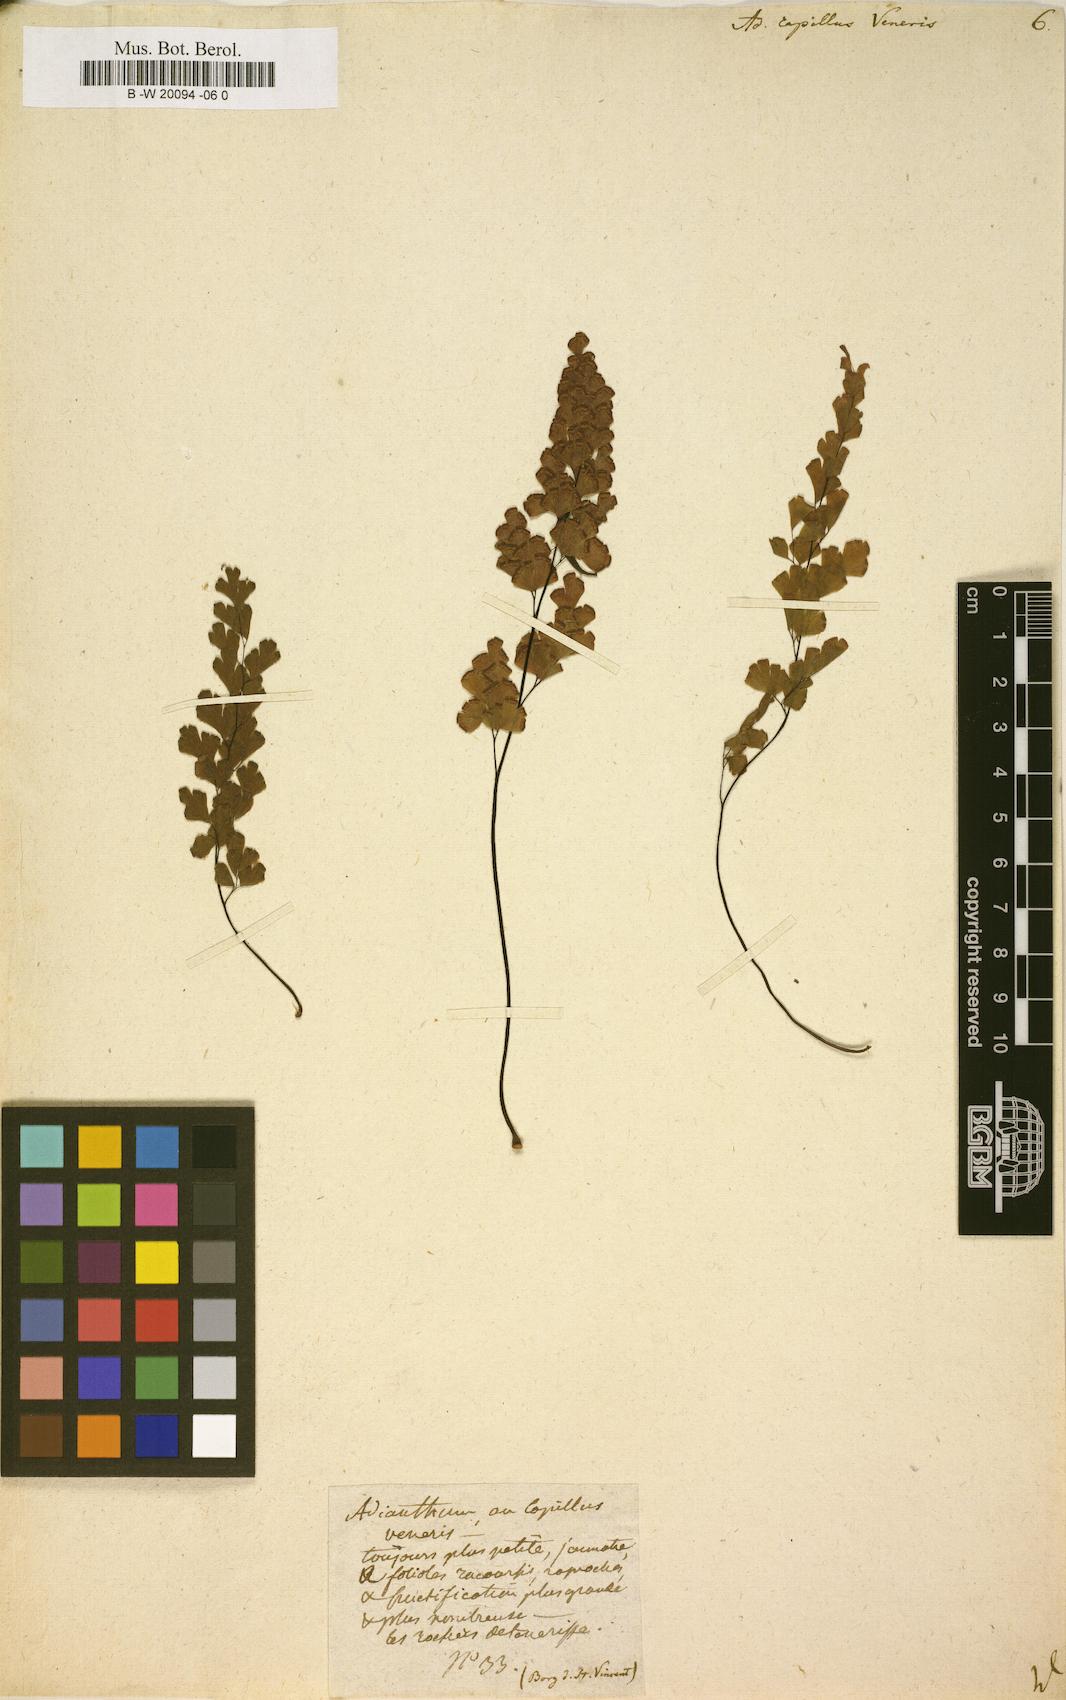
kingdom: Plantae
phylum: Tracheophyta
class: Polypodiopsida
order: Polypodiales
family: Pteridaceae
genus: Adiantum
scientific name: Adiantum capillus-veneris
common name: Maidenhair fern
